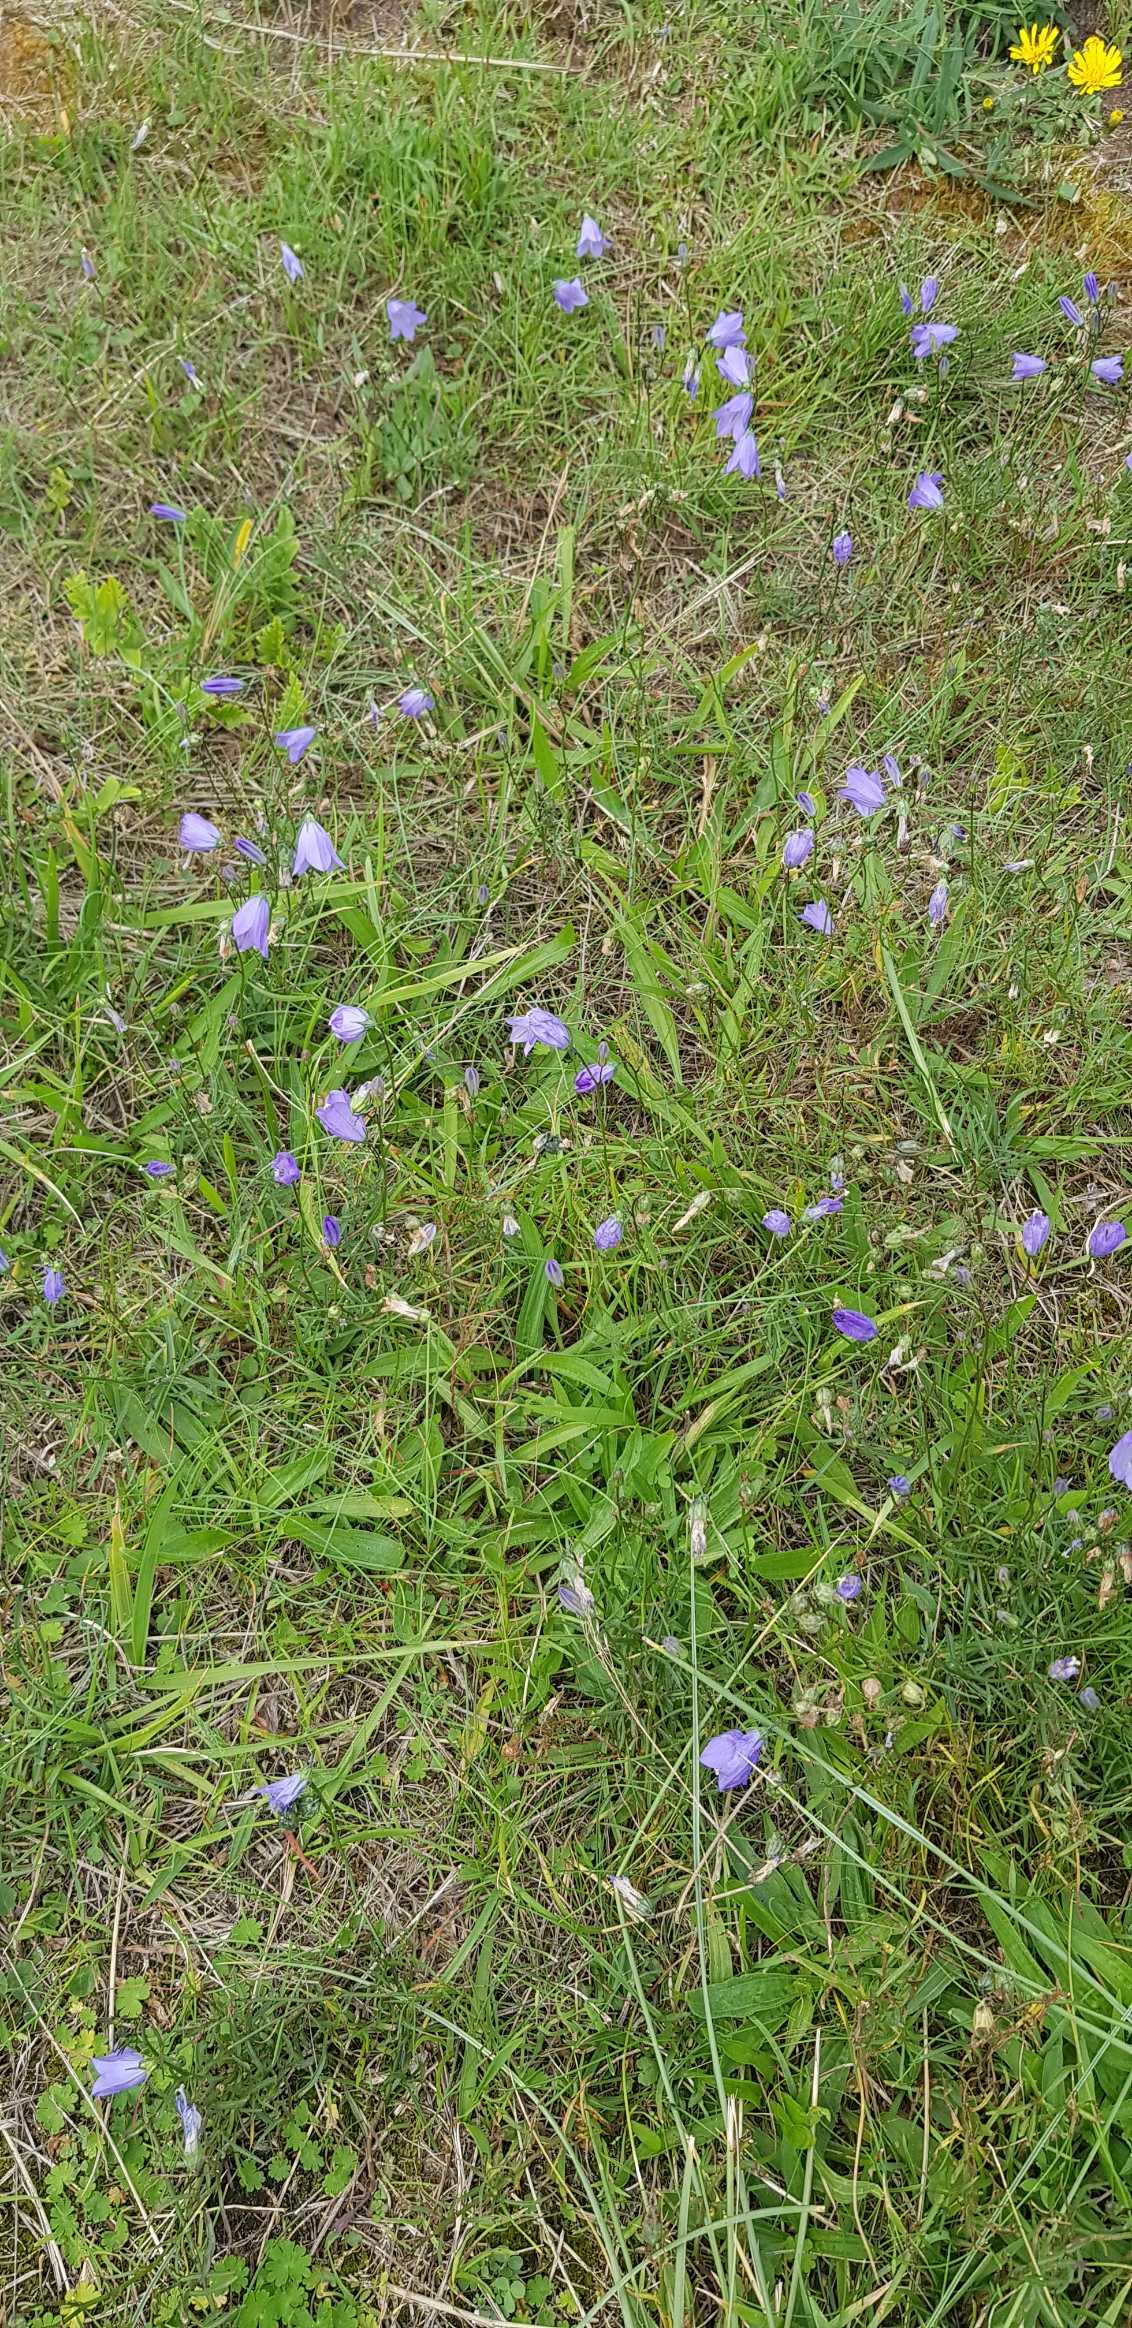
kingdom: Plantae
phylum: Tracheophyta
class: Magnoliopsida
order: Asterales
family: Campanulaceae
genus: Campanula
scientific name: Campanula rotundifolia
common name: Liden klokke
